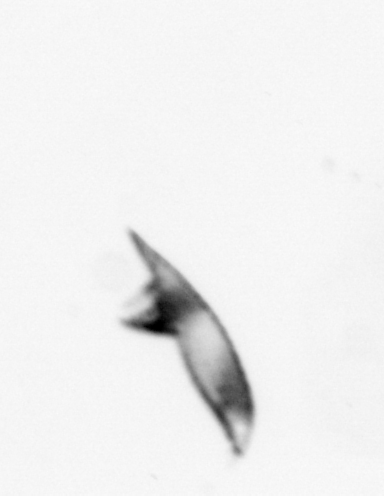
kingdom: Animalia
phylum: Arthropoda
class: Maxillopoda
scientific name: Maxillopoda
